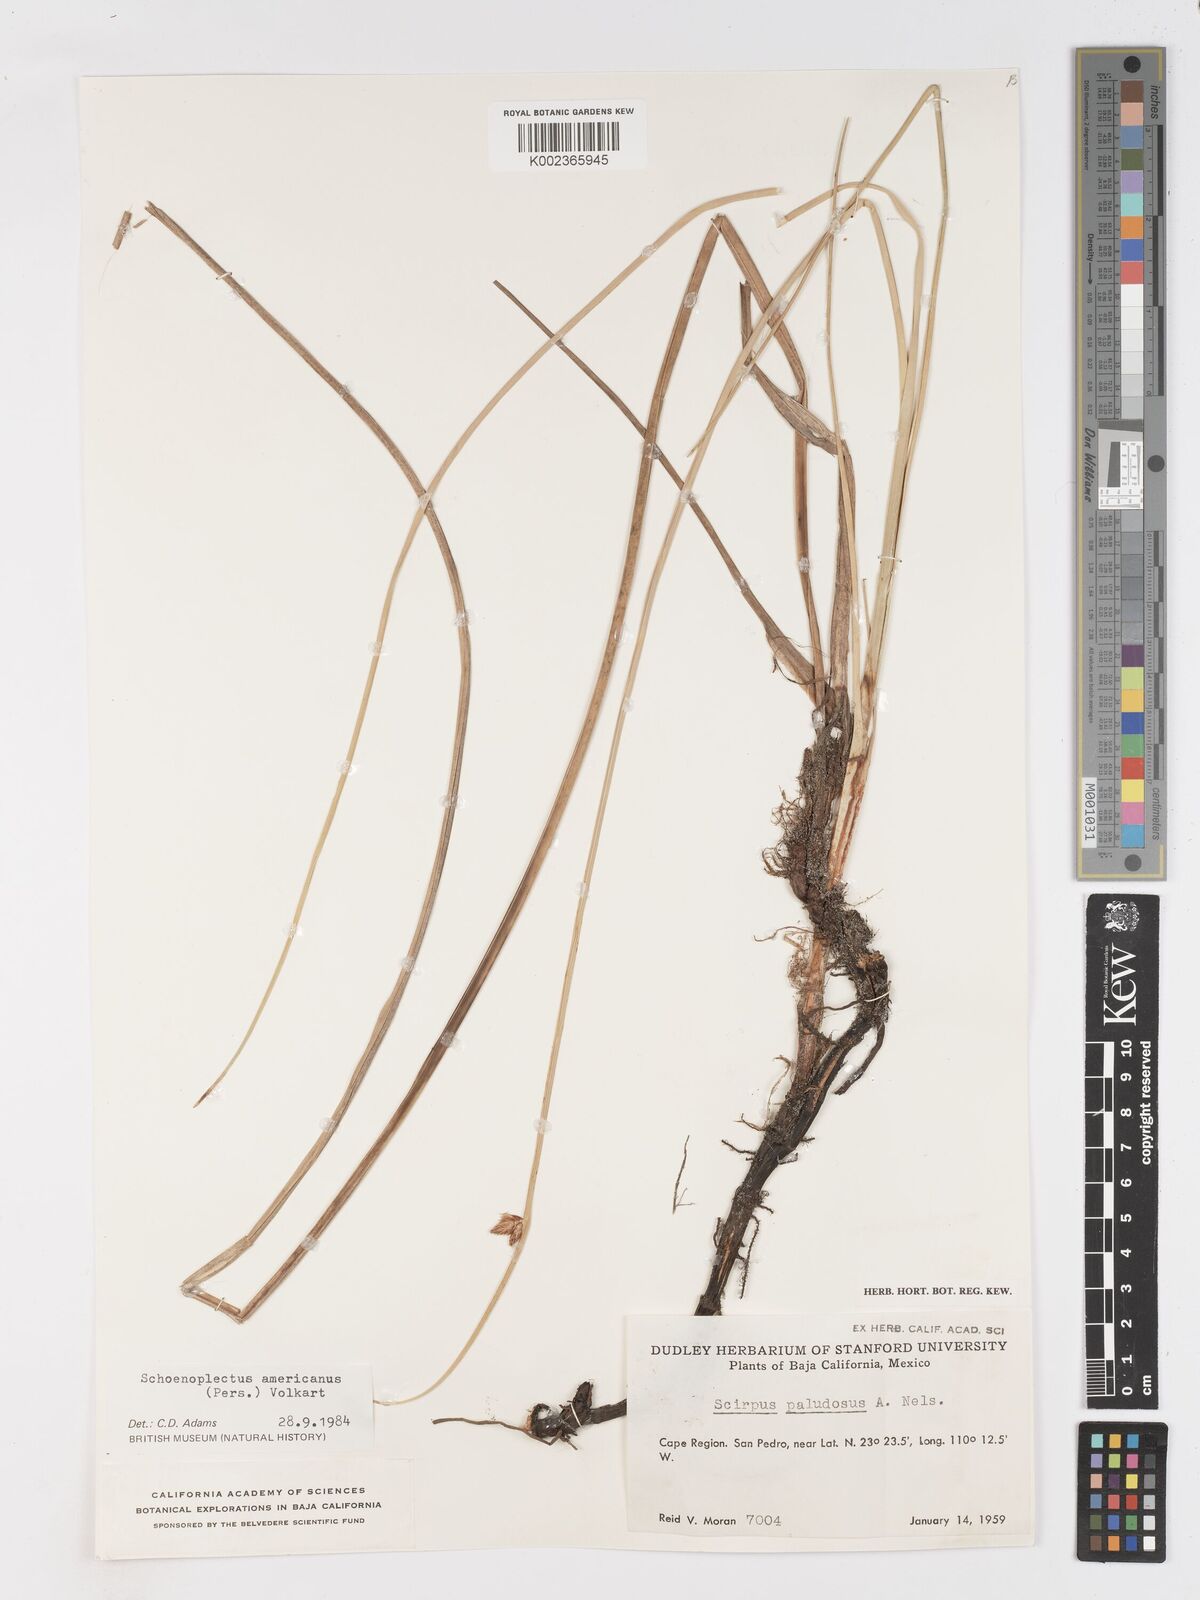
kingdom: Plantae
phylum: Tracheophyta
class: Liliopsida
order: Poales
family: Cyperaceae
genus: Schoenoplectus
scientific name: Schoenoplectus americanus
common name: American three-square bulrush
